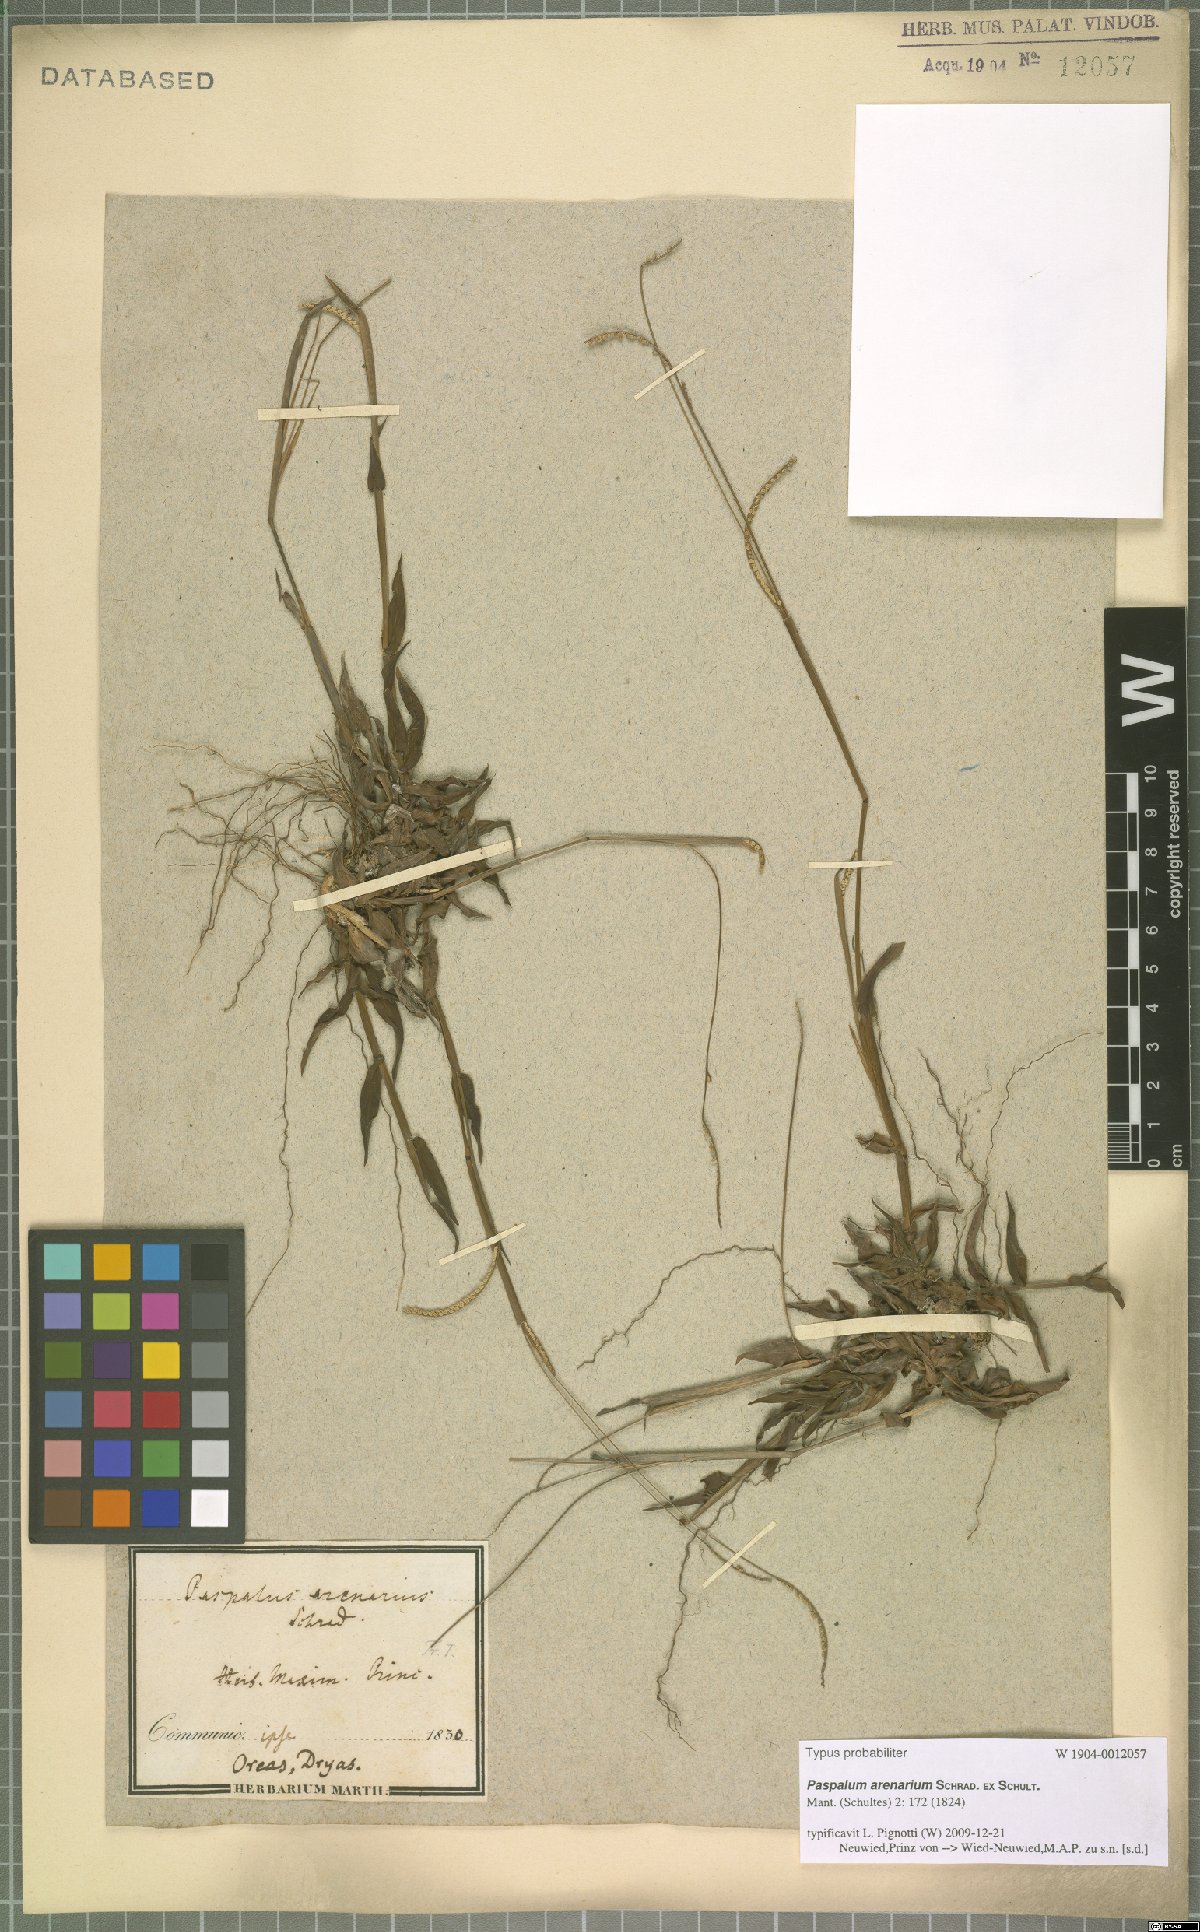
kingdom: Plantae
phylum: Tracheophyta
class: Liliopsida
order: Poales
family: Poaceae
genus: Paspalum
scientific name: Paspalum arenarium
